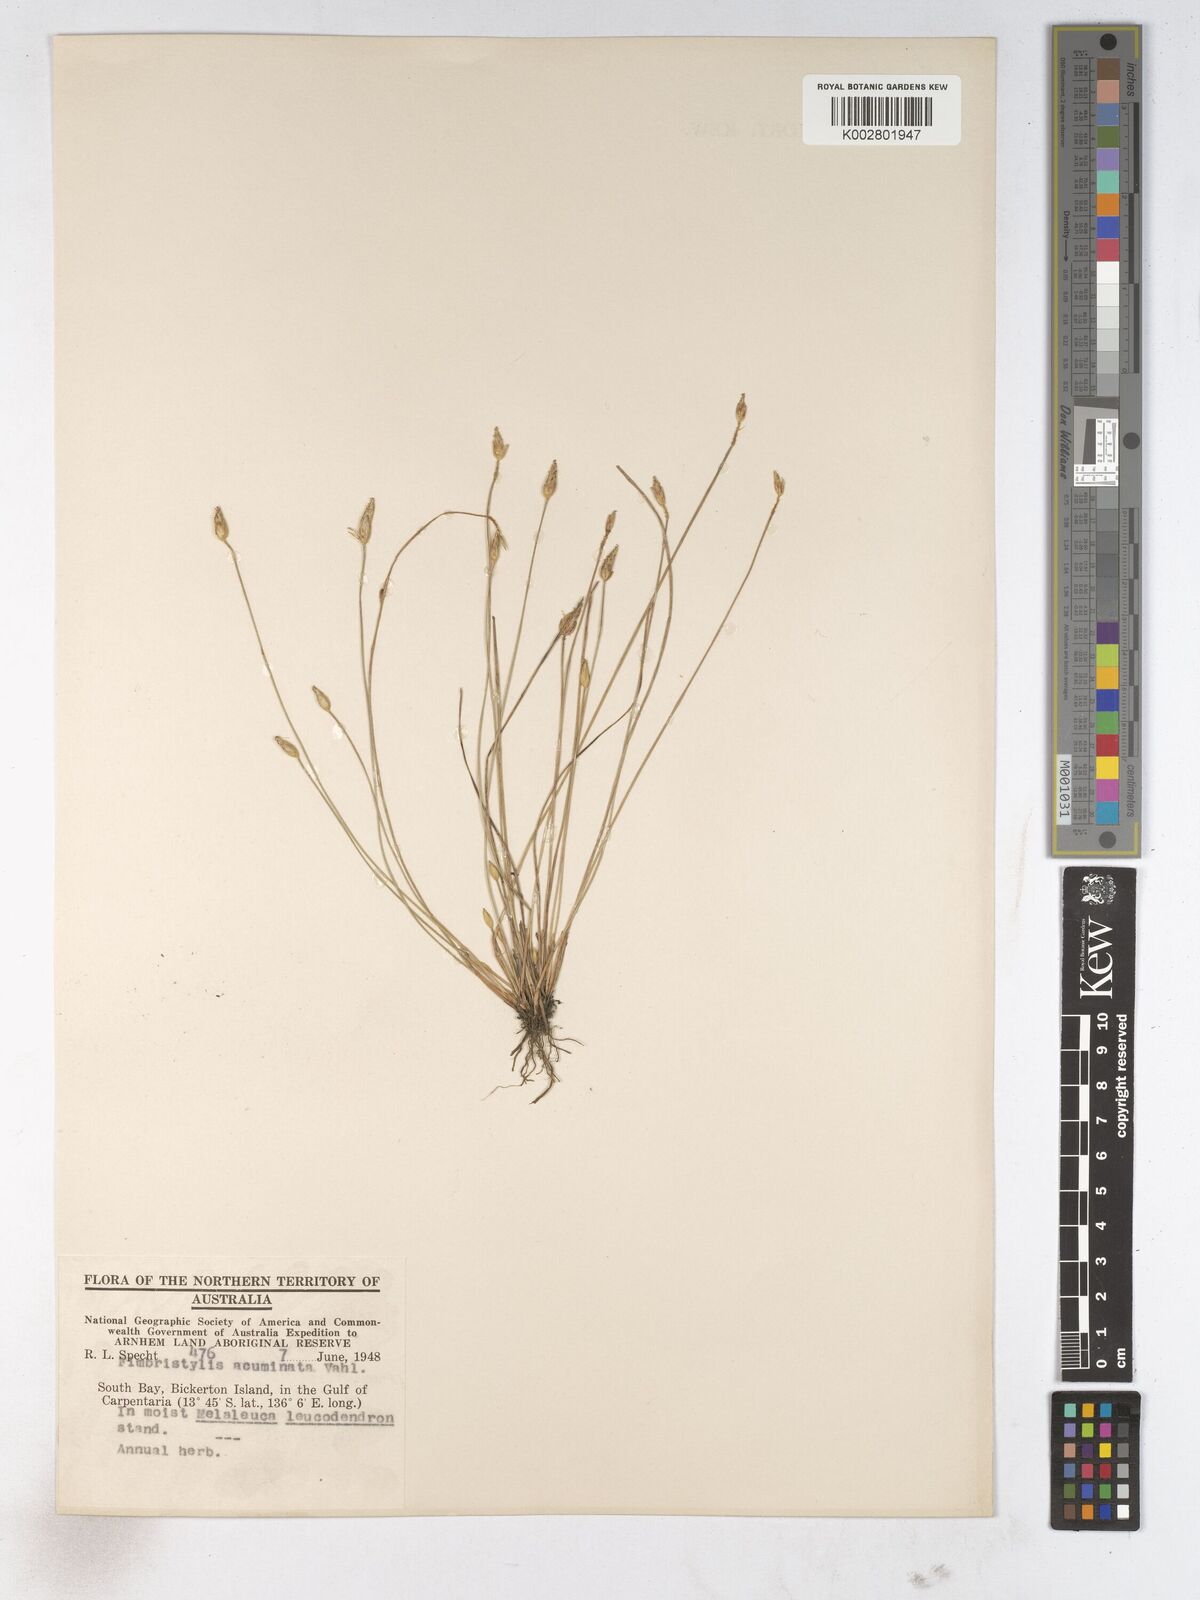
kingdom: Plantae
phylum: Tracheophyta
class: Liliopsida
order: Poales
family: Cyperaceae
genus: Fimbristylis
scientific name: Fimbristylis acuminata
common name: Pointed fimbristylis
